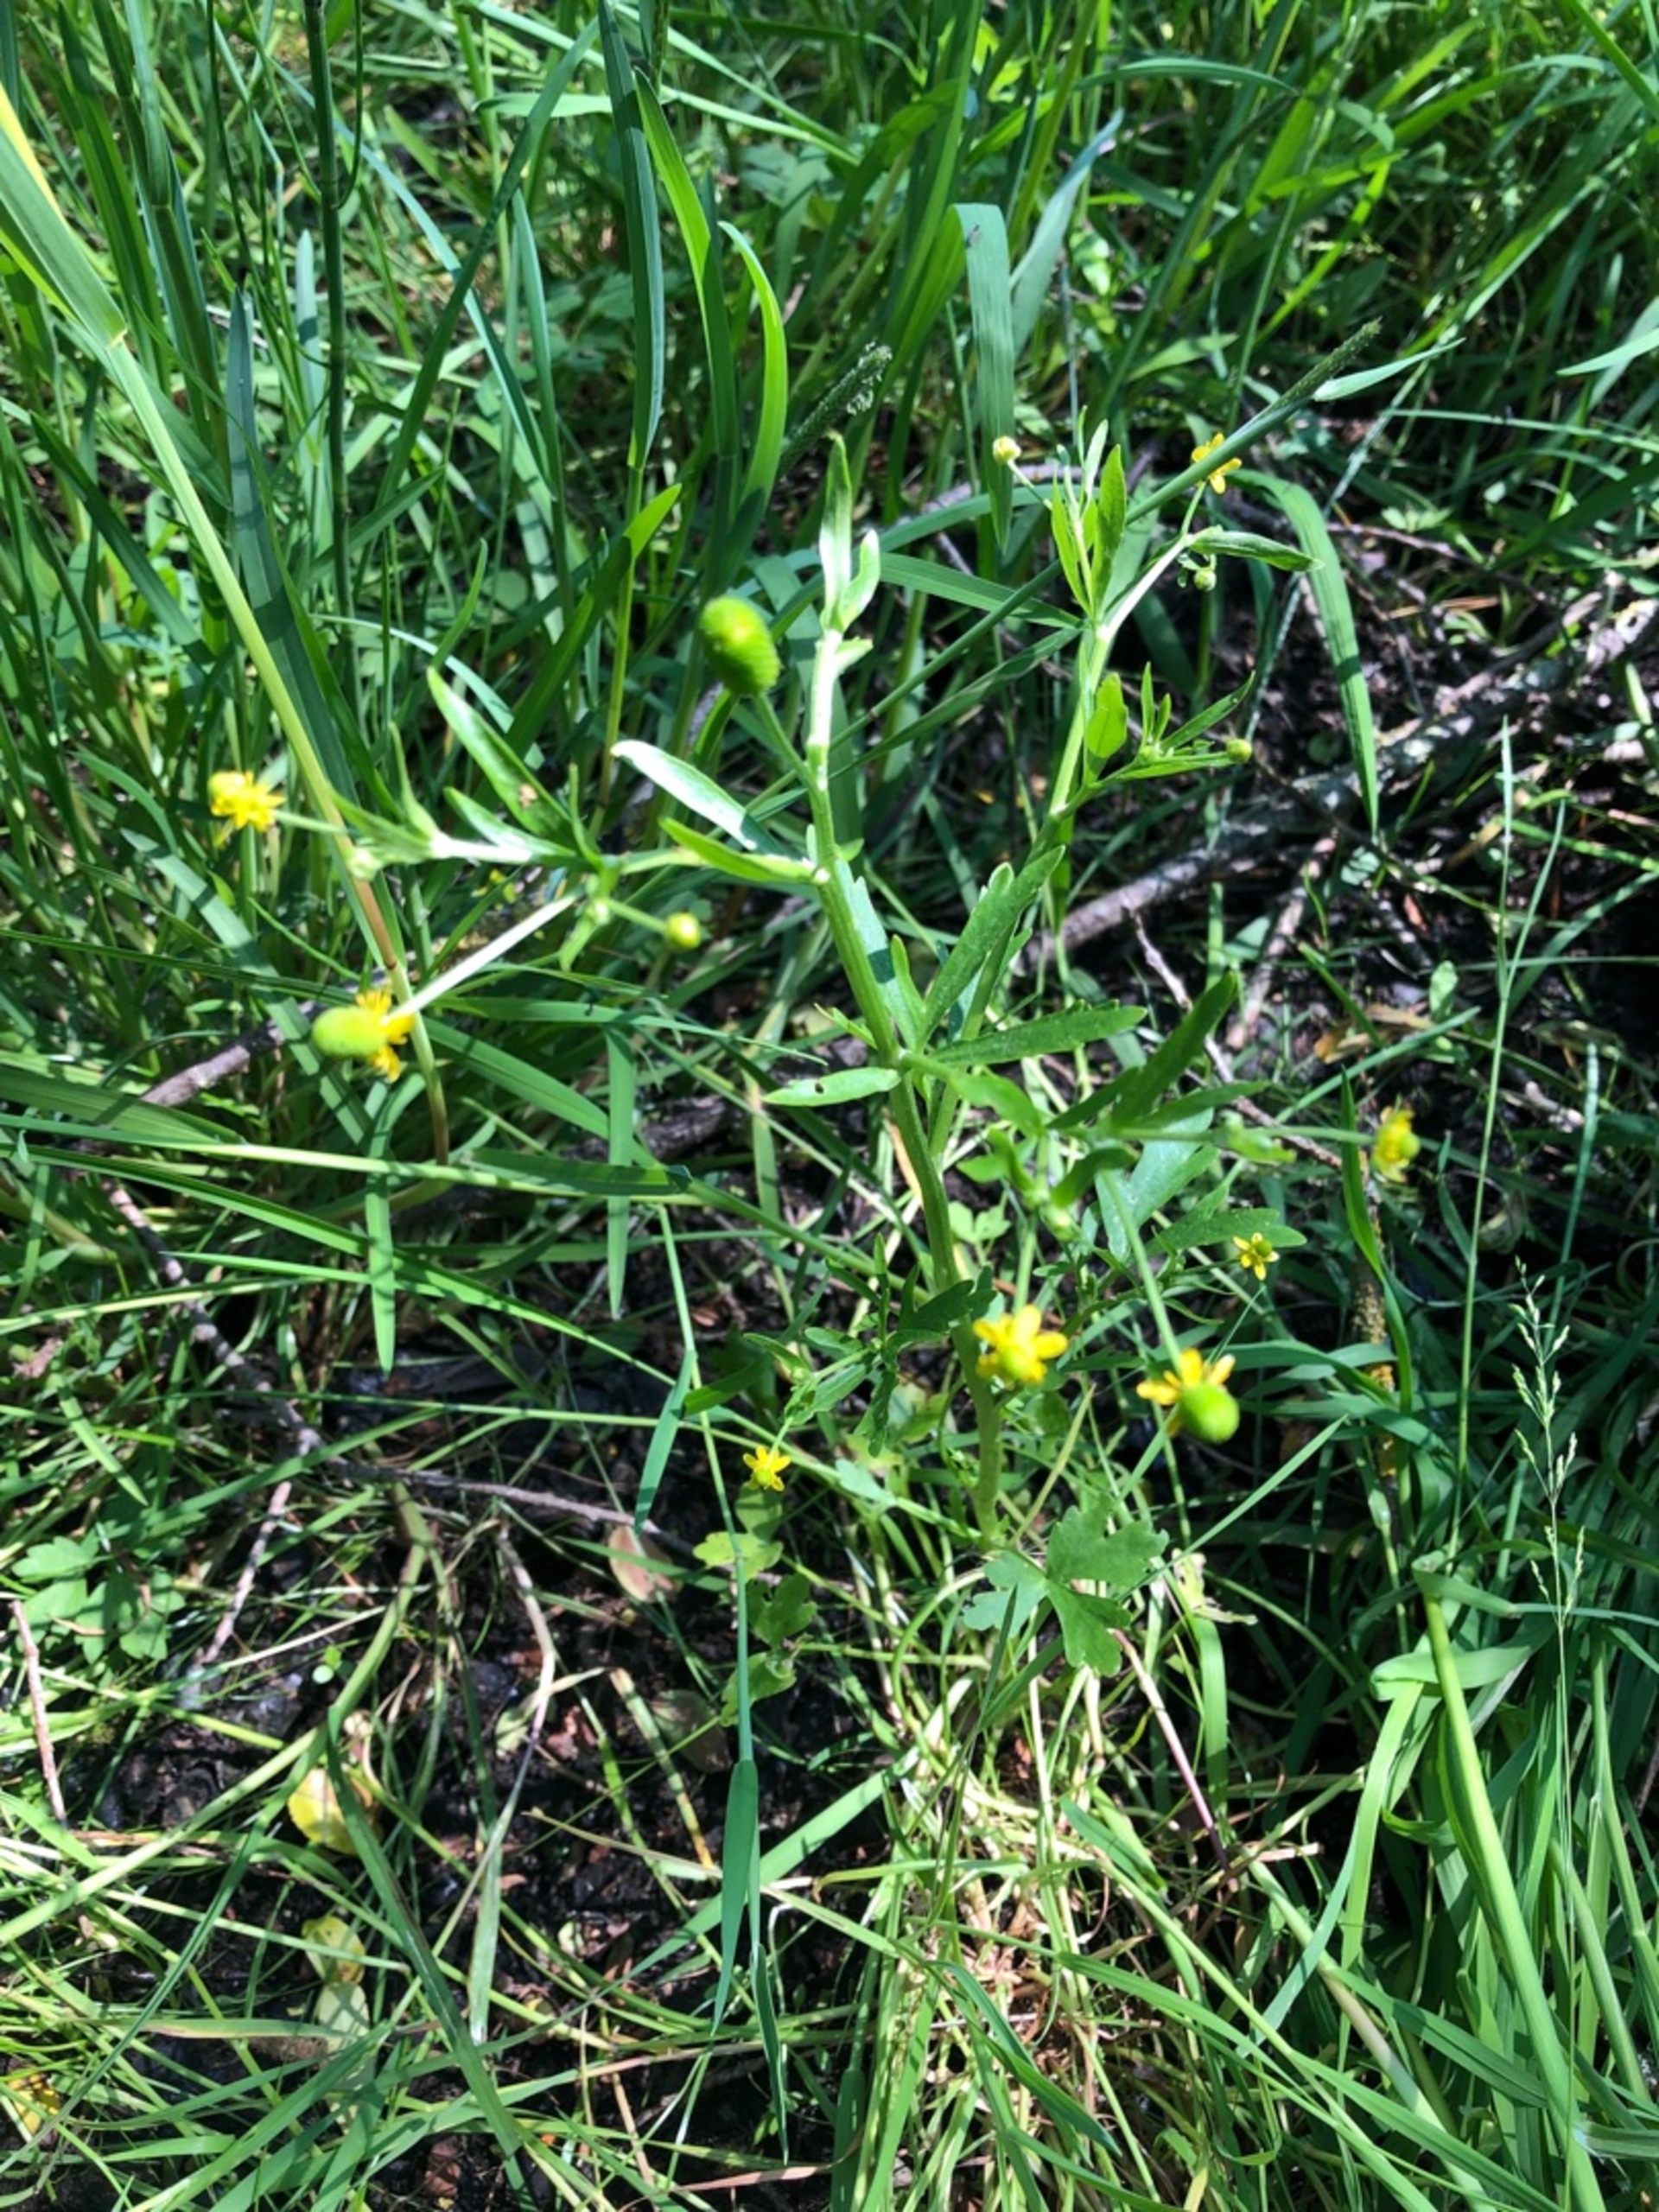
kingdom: Plantae
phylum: Tracheophyta
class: Magnoliopsida
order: Ranunculales
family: Ranunculaceae
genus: Ranunculus
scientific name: Ranunculus sceleratus
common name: Tigger-ranunkel
